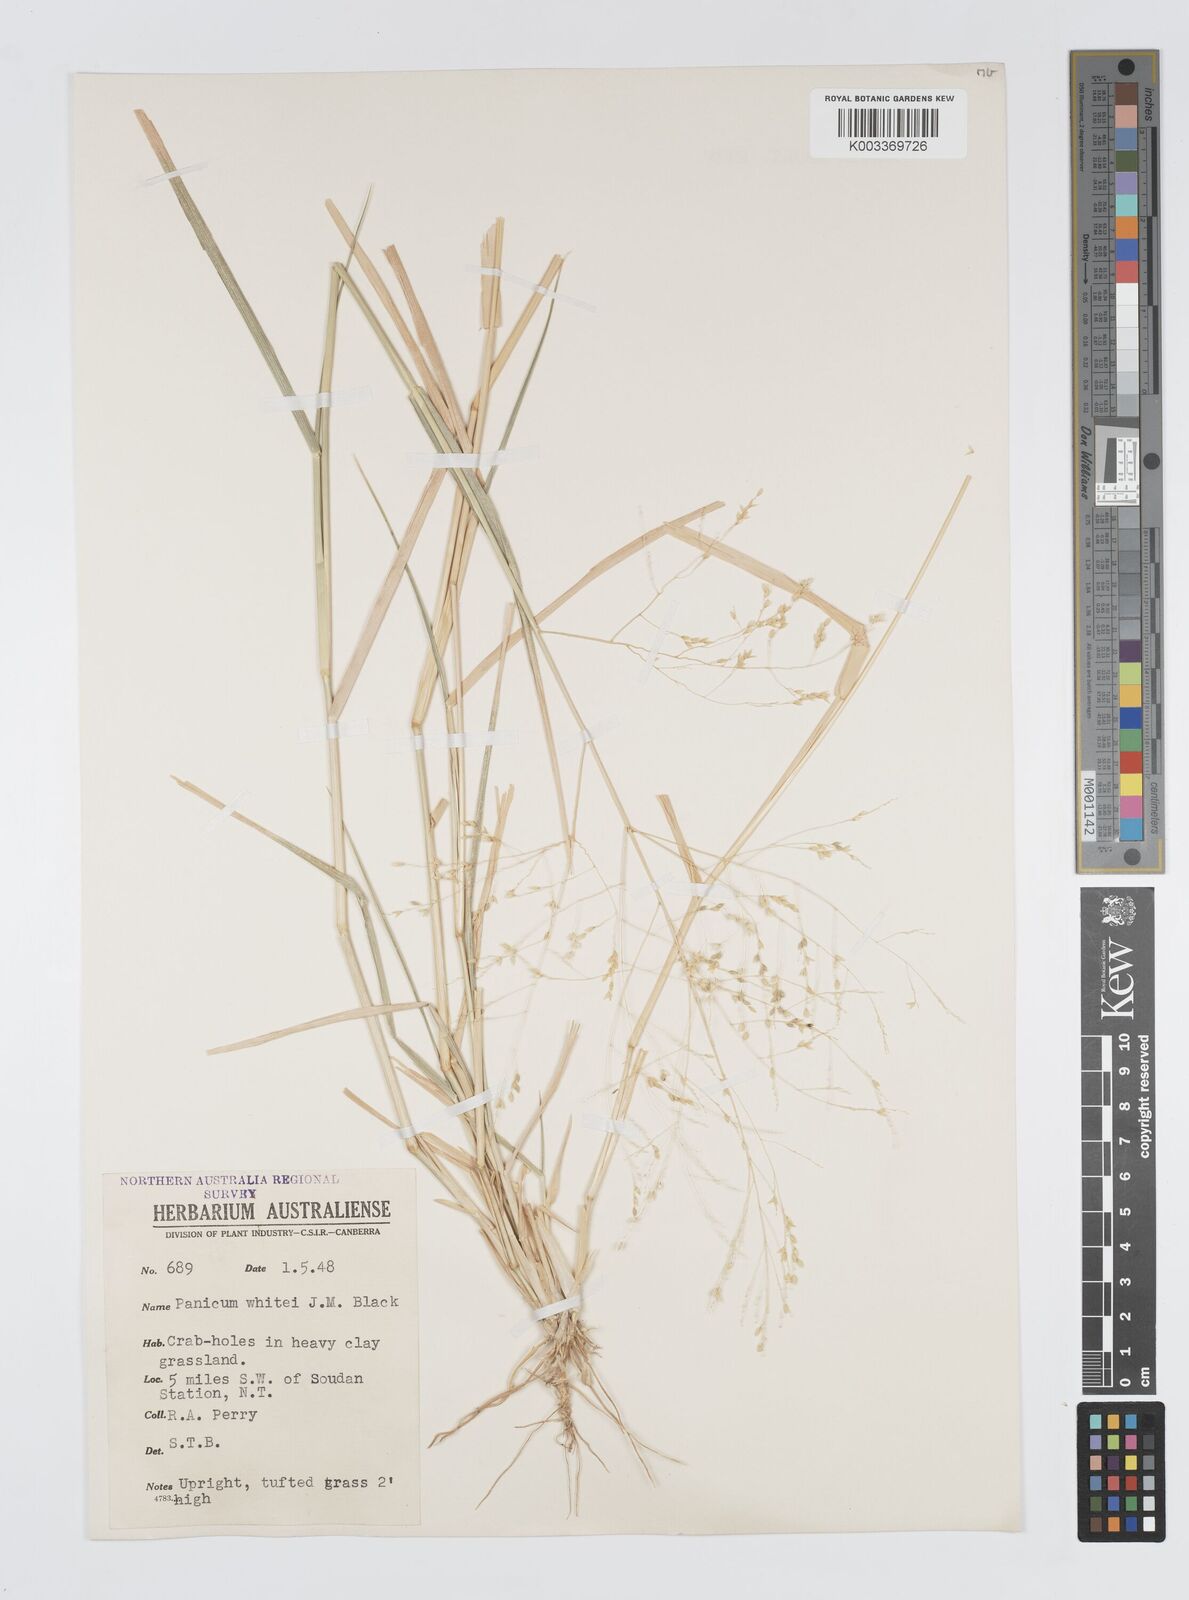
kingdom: Plantae
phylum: Tracheophyta
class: Liliopsida
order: Poales
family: Poaceae
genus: Panicum
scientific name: Panicum laevinode
